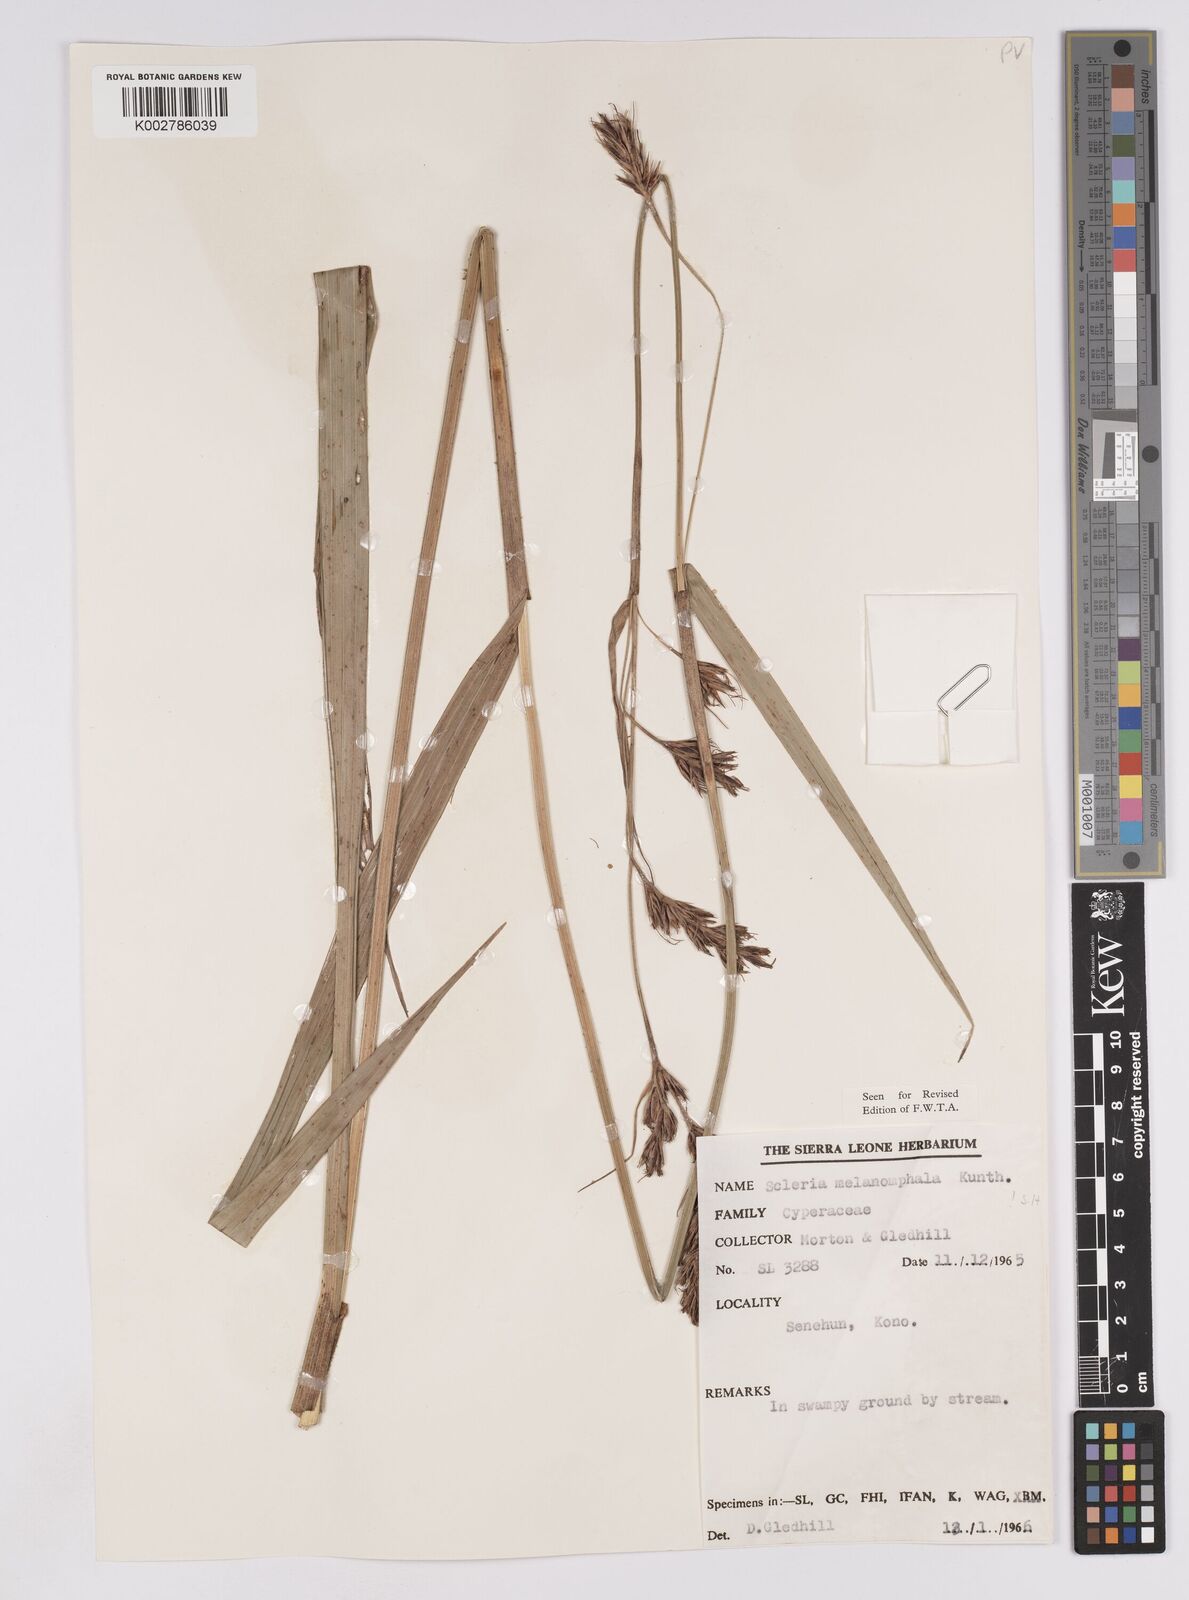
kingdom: Plantae
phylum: Tracheophyta
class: Liliopsida
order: Poales
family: Cyperaceae
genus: Scleria
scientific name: Scleria melanomphala
